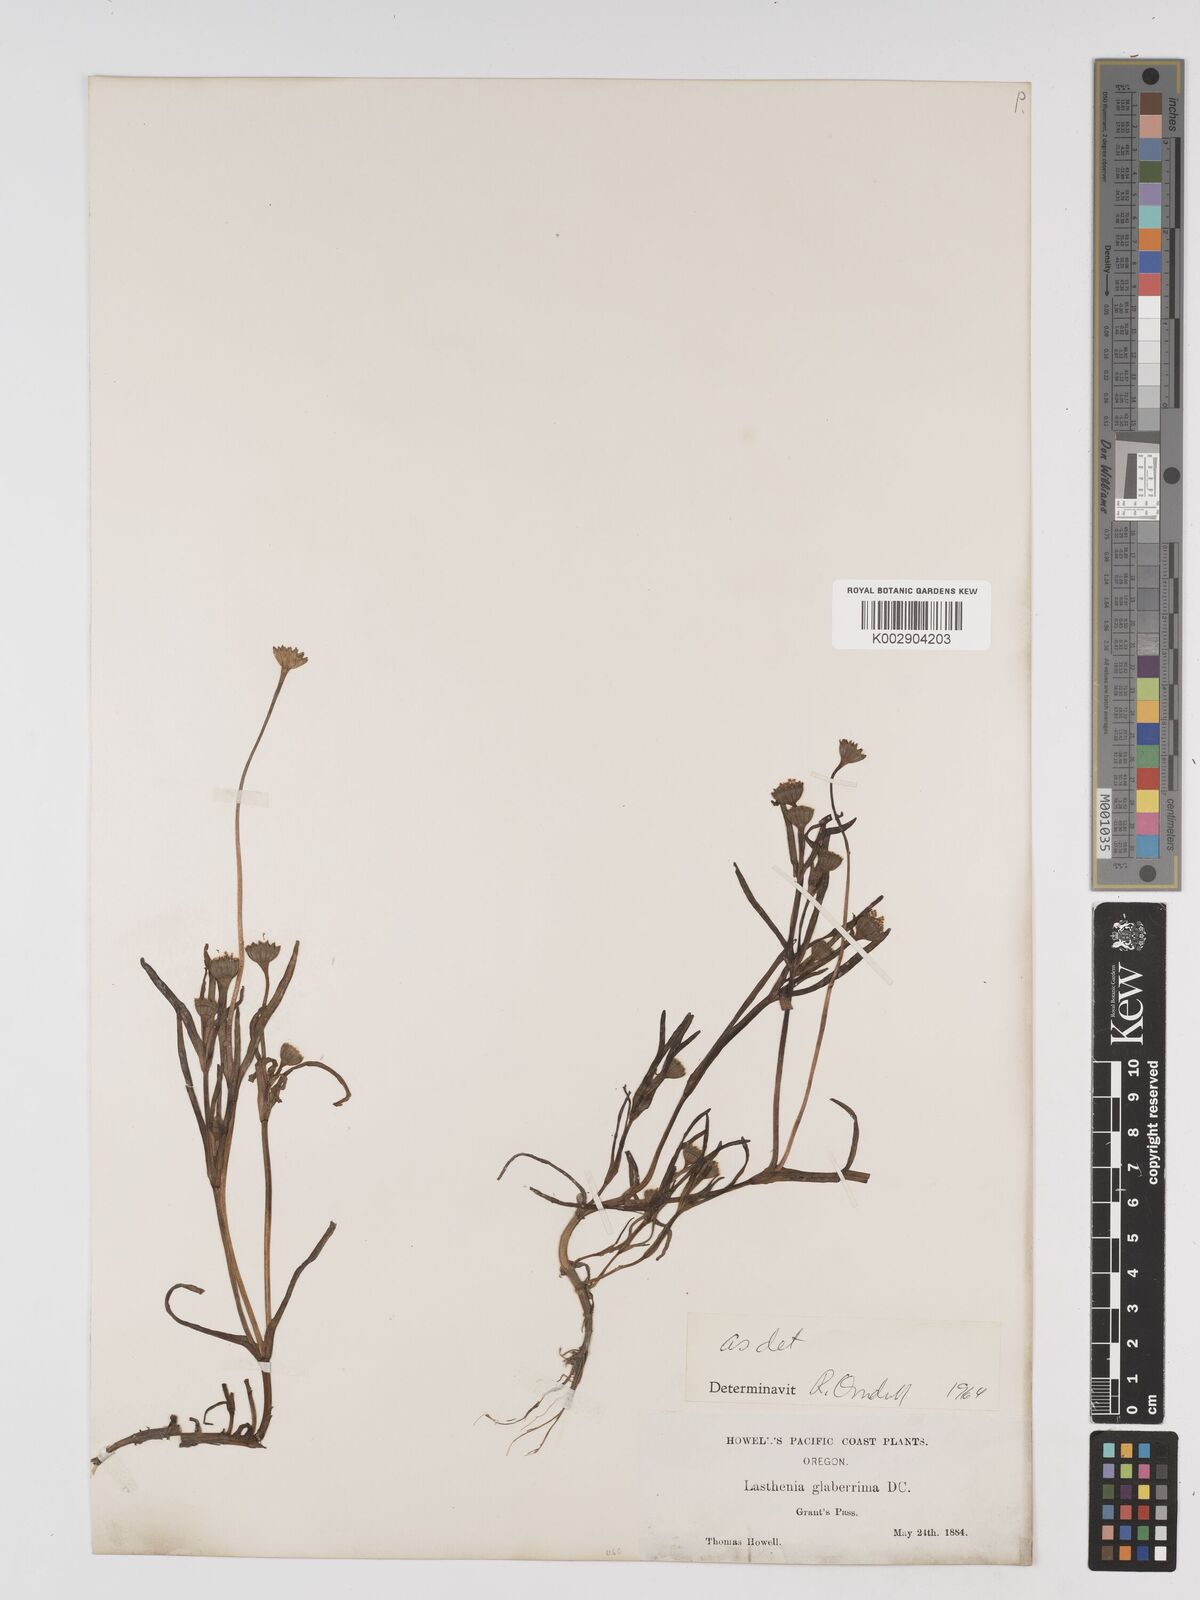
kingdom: Plantae
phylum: Tracheophyta
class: Magnoliopsida
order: Asterales
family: Asteraceae
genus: Lasthenia
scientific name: Lasthenia glaberrima
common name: Smooth goldfields
